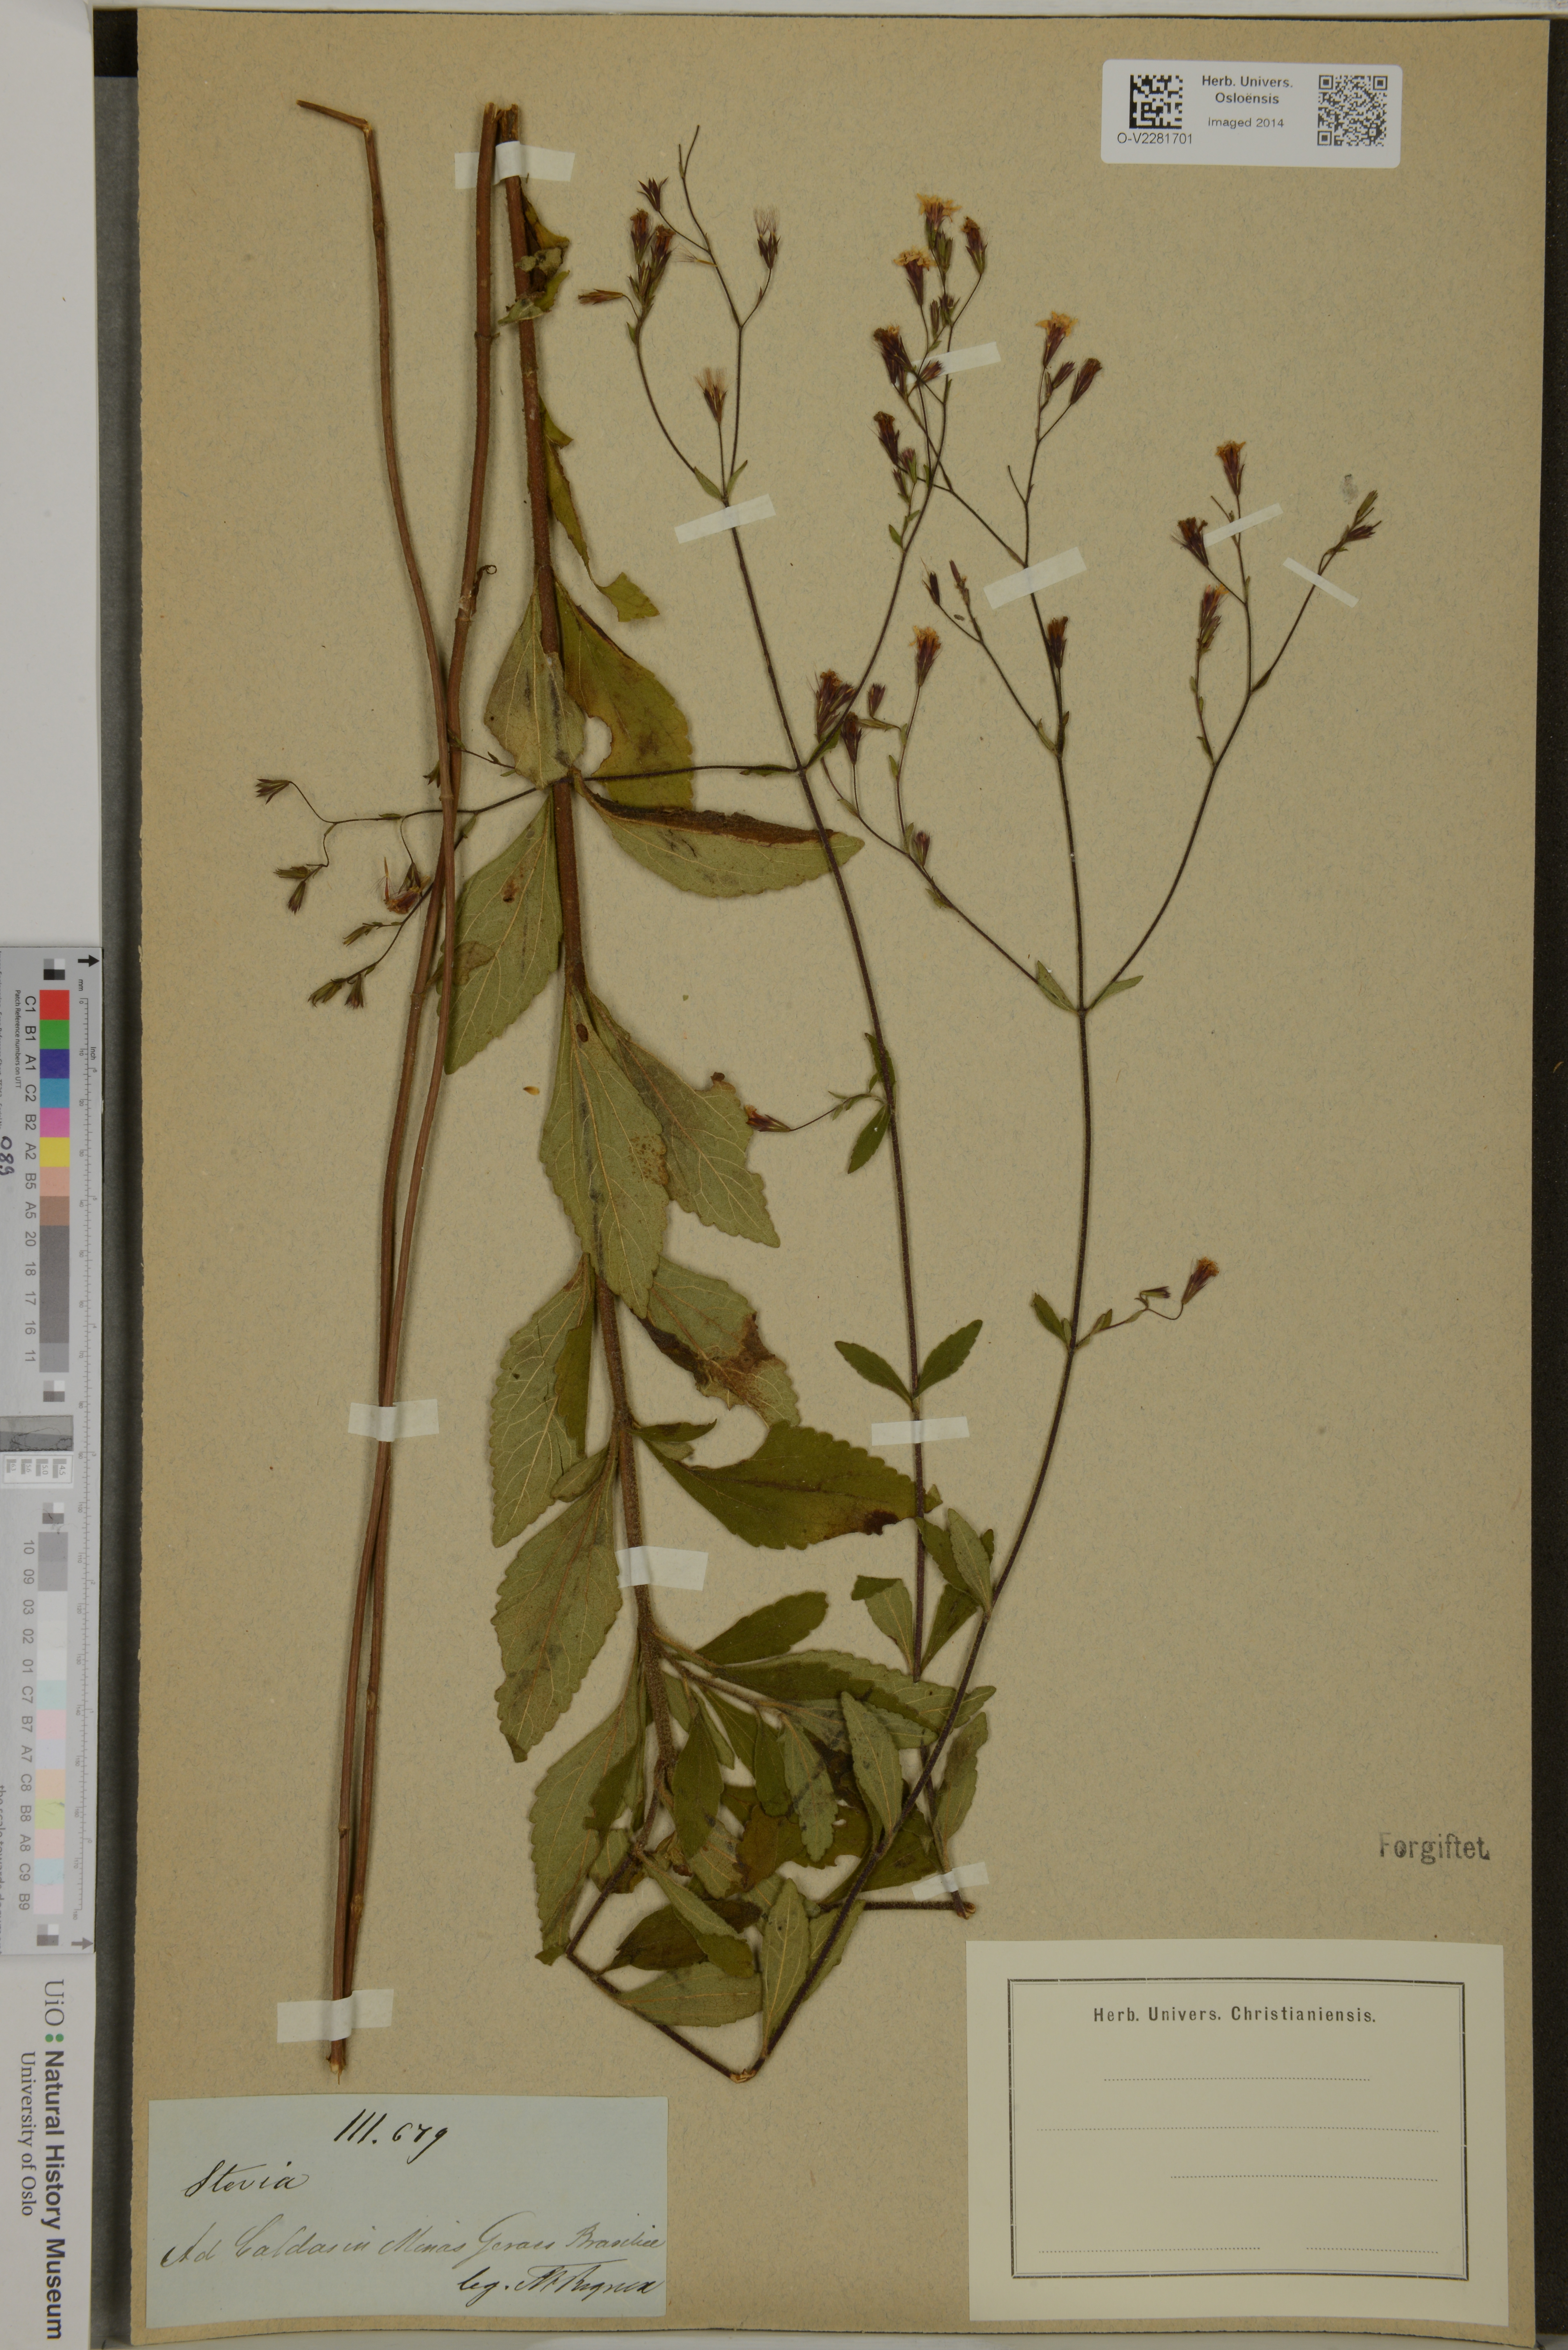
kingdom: Plantae
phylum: Tracheophyta
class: Magnoliopsida
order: Asterales
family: Asteraceae
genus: Stevia
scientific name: Stevia
